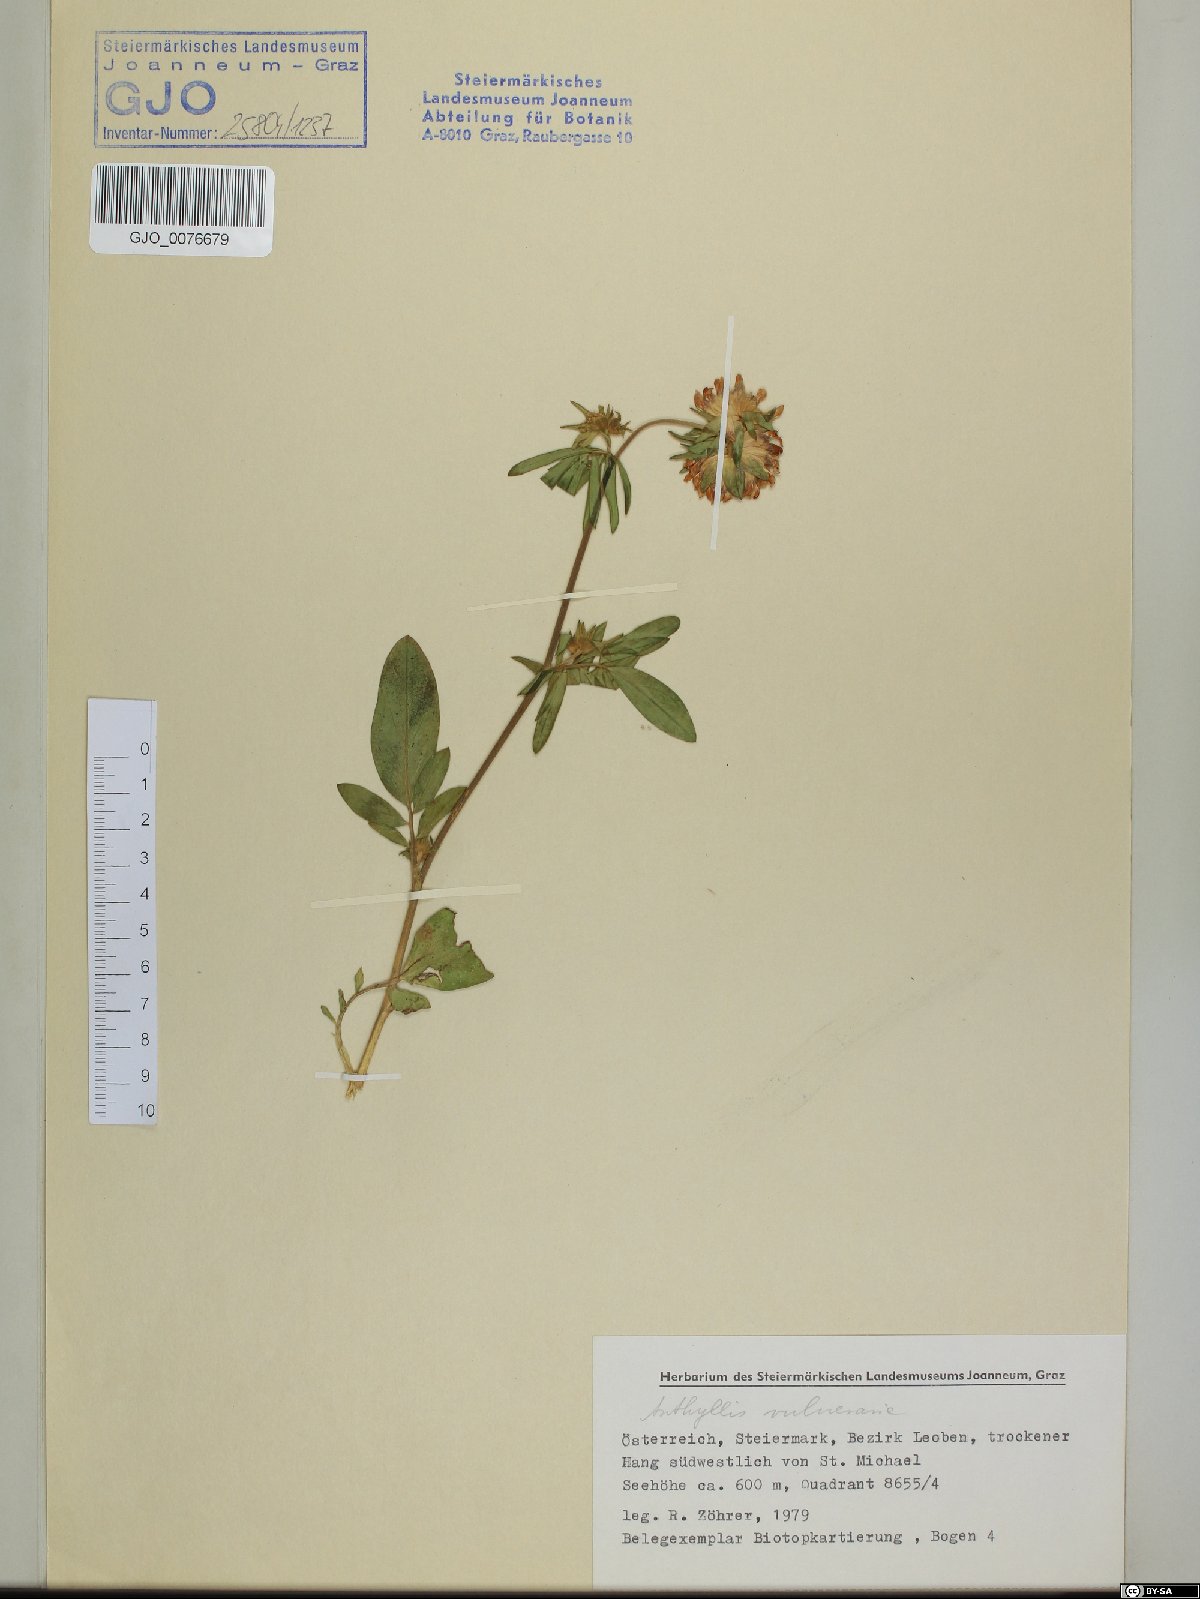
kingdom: Plantae
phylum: Tracheophyta
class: Magnoliopsida
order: Fabales
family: Fabaceae
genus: Anthyllis
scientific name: Anthyllis vulneraria
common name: Kidney vetch
